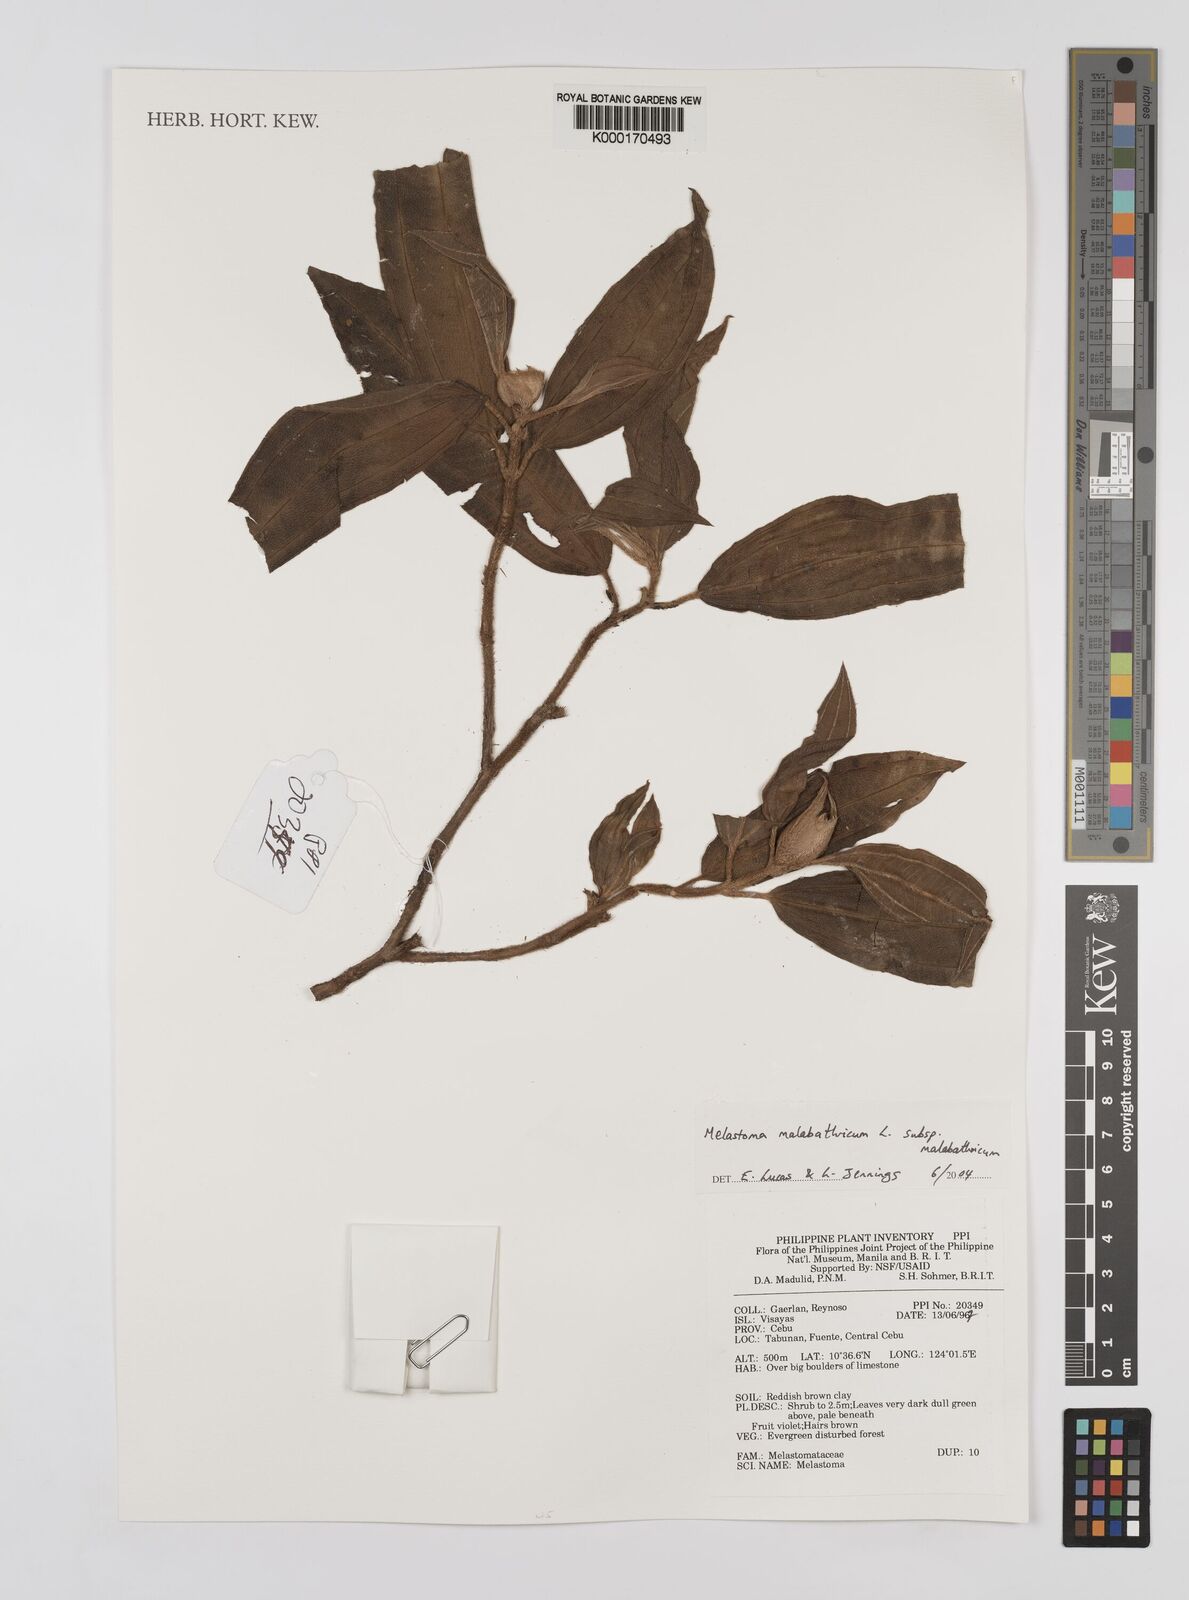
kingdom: Plantae
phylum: Tracheophyta
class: Magnoliopsida
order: Myrtales
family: Melastomataceae
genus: Melastoma
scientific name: Melastoma malabathricum
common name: Indian-rhododendron
